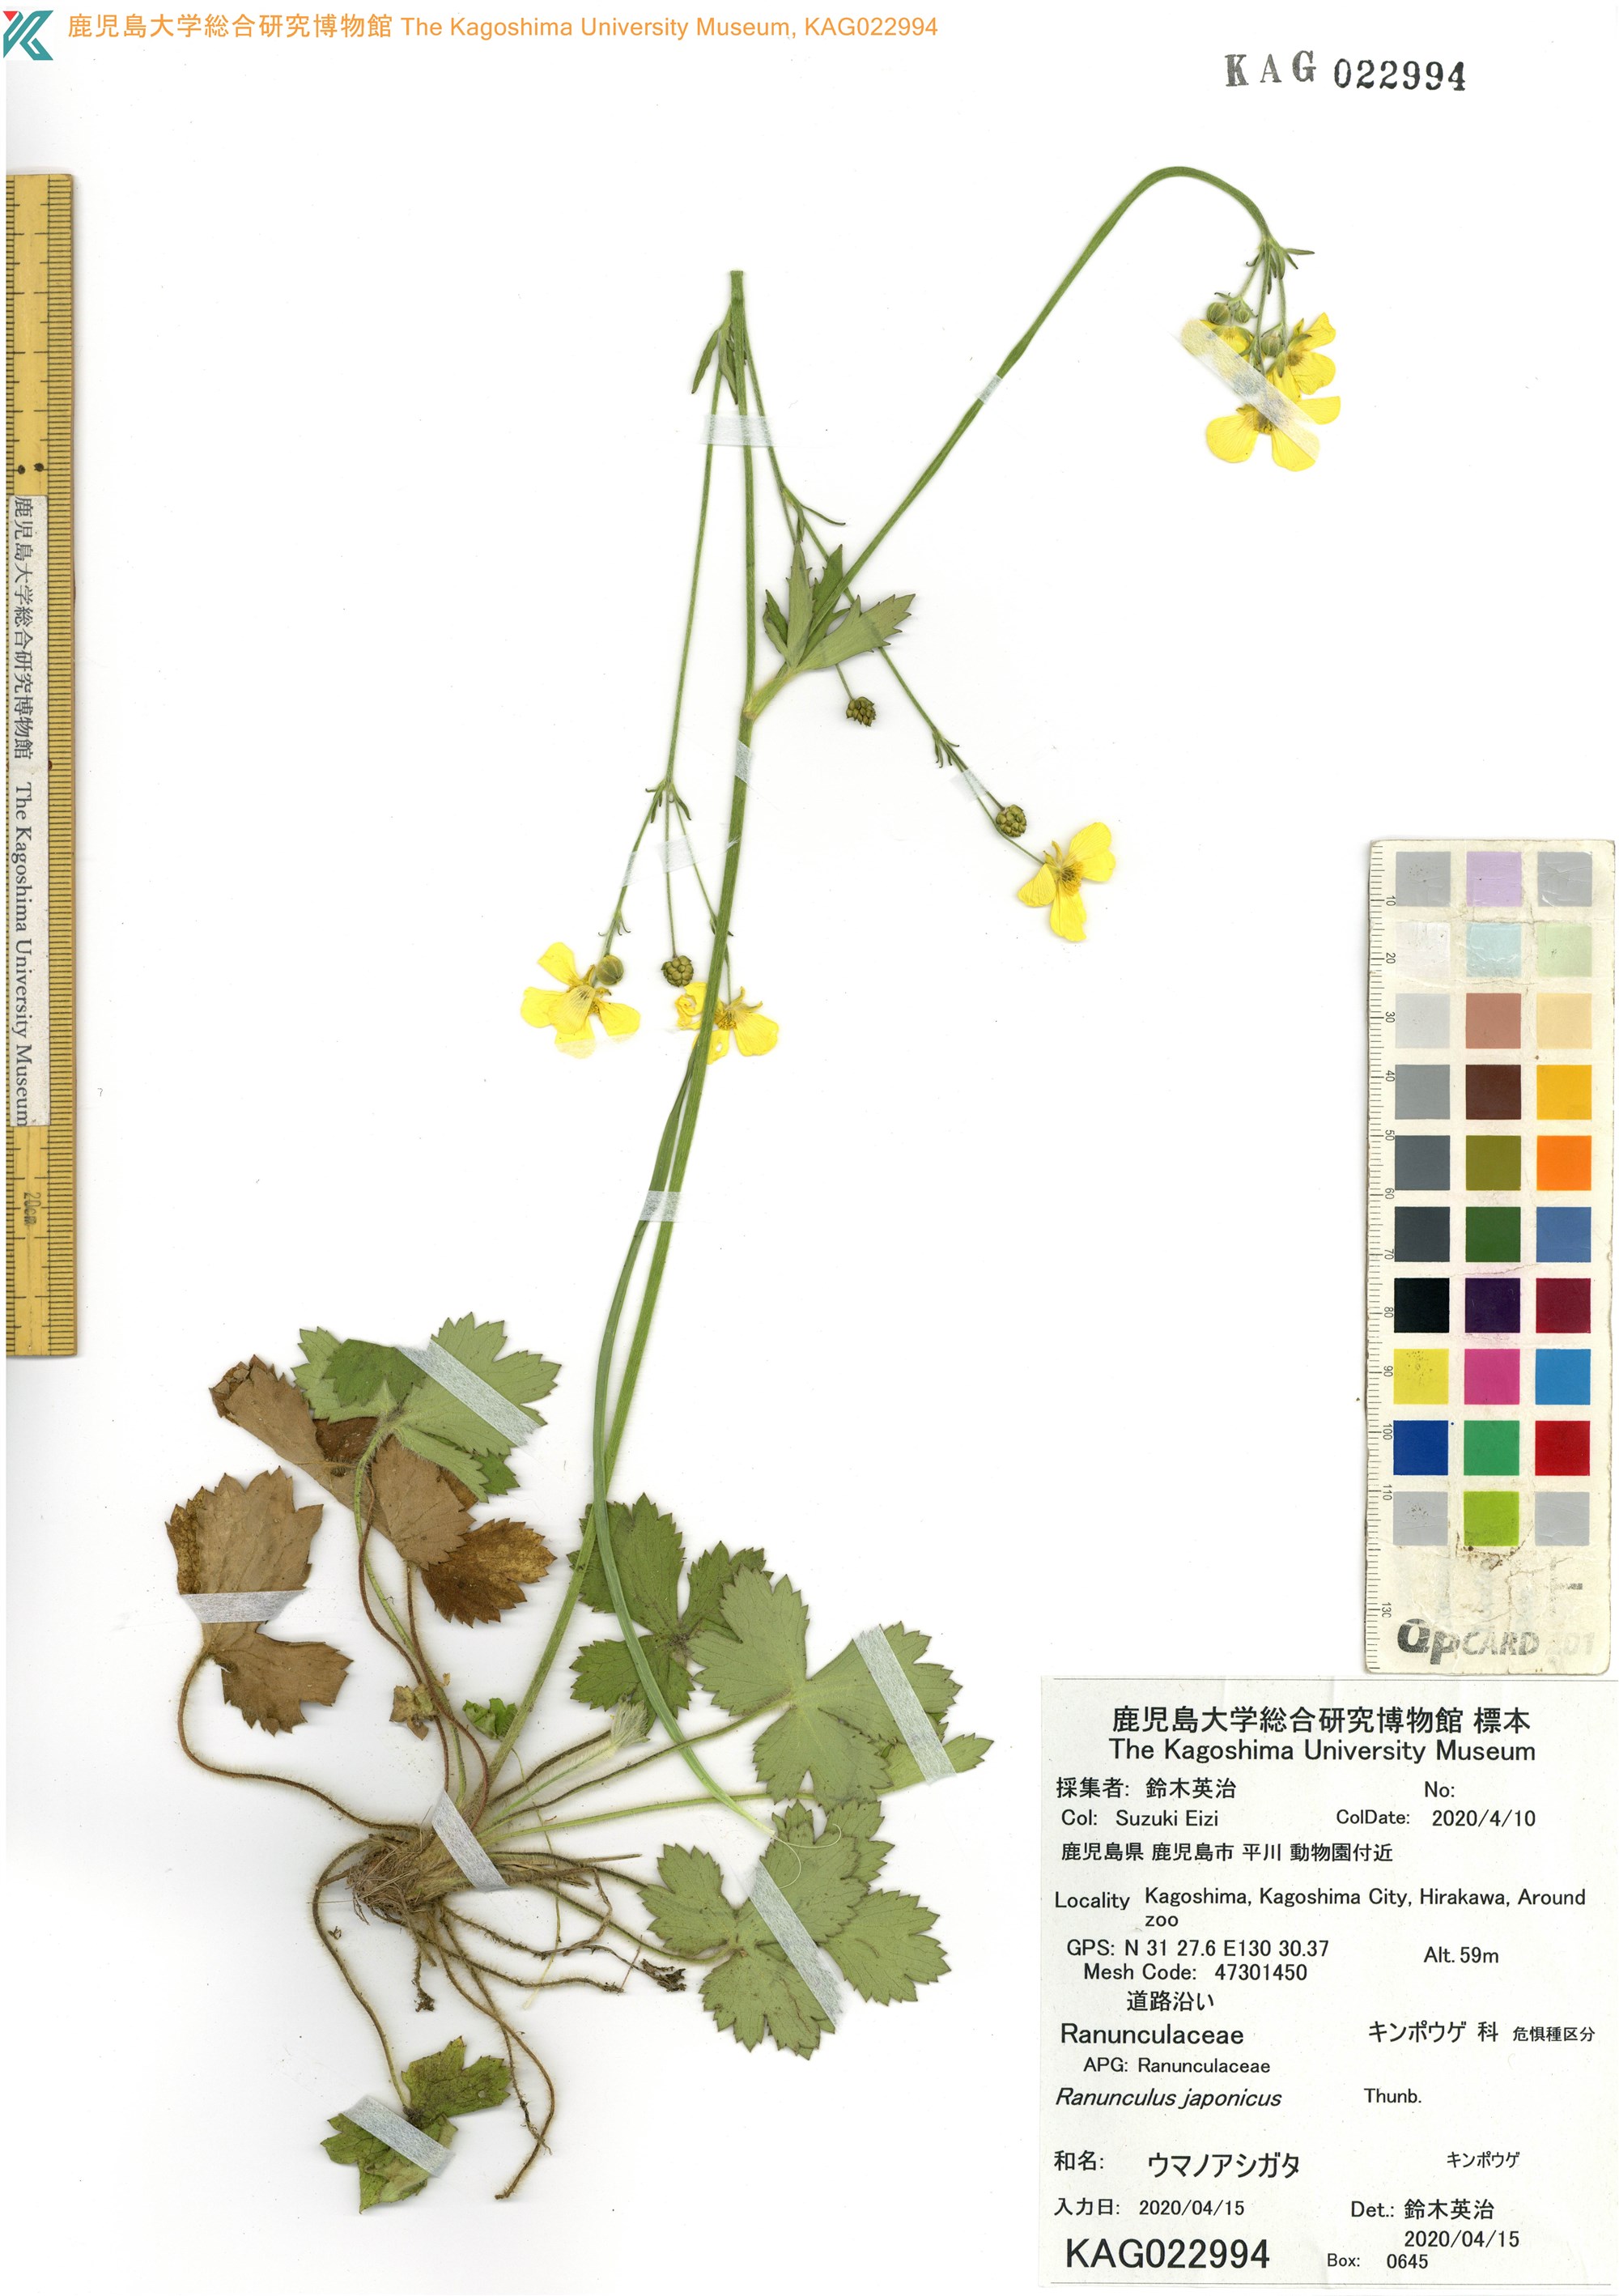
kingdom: Plantae
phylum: Tracheophyta
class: Magnoliopsida
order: Ranunculales
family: Ranunculaceae
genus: Ranunculus
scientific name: Ranunculus japonicus
